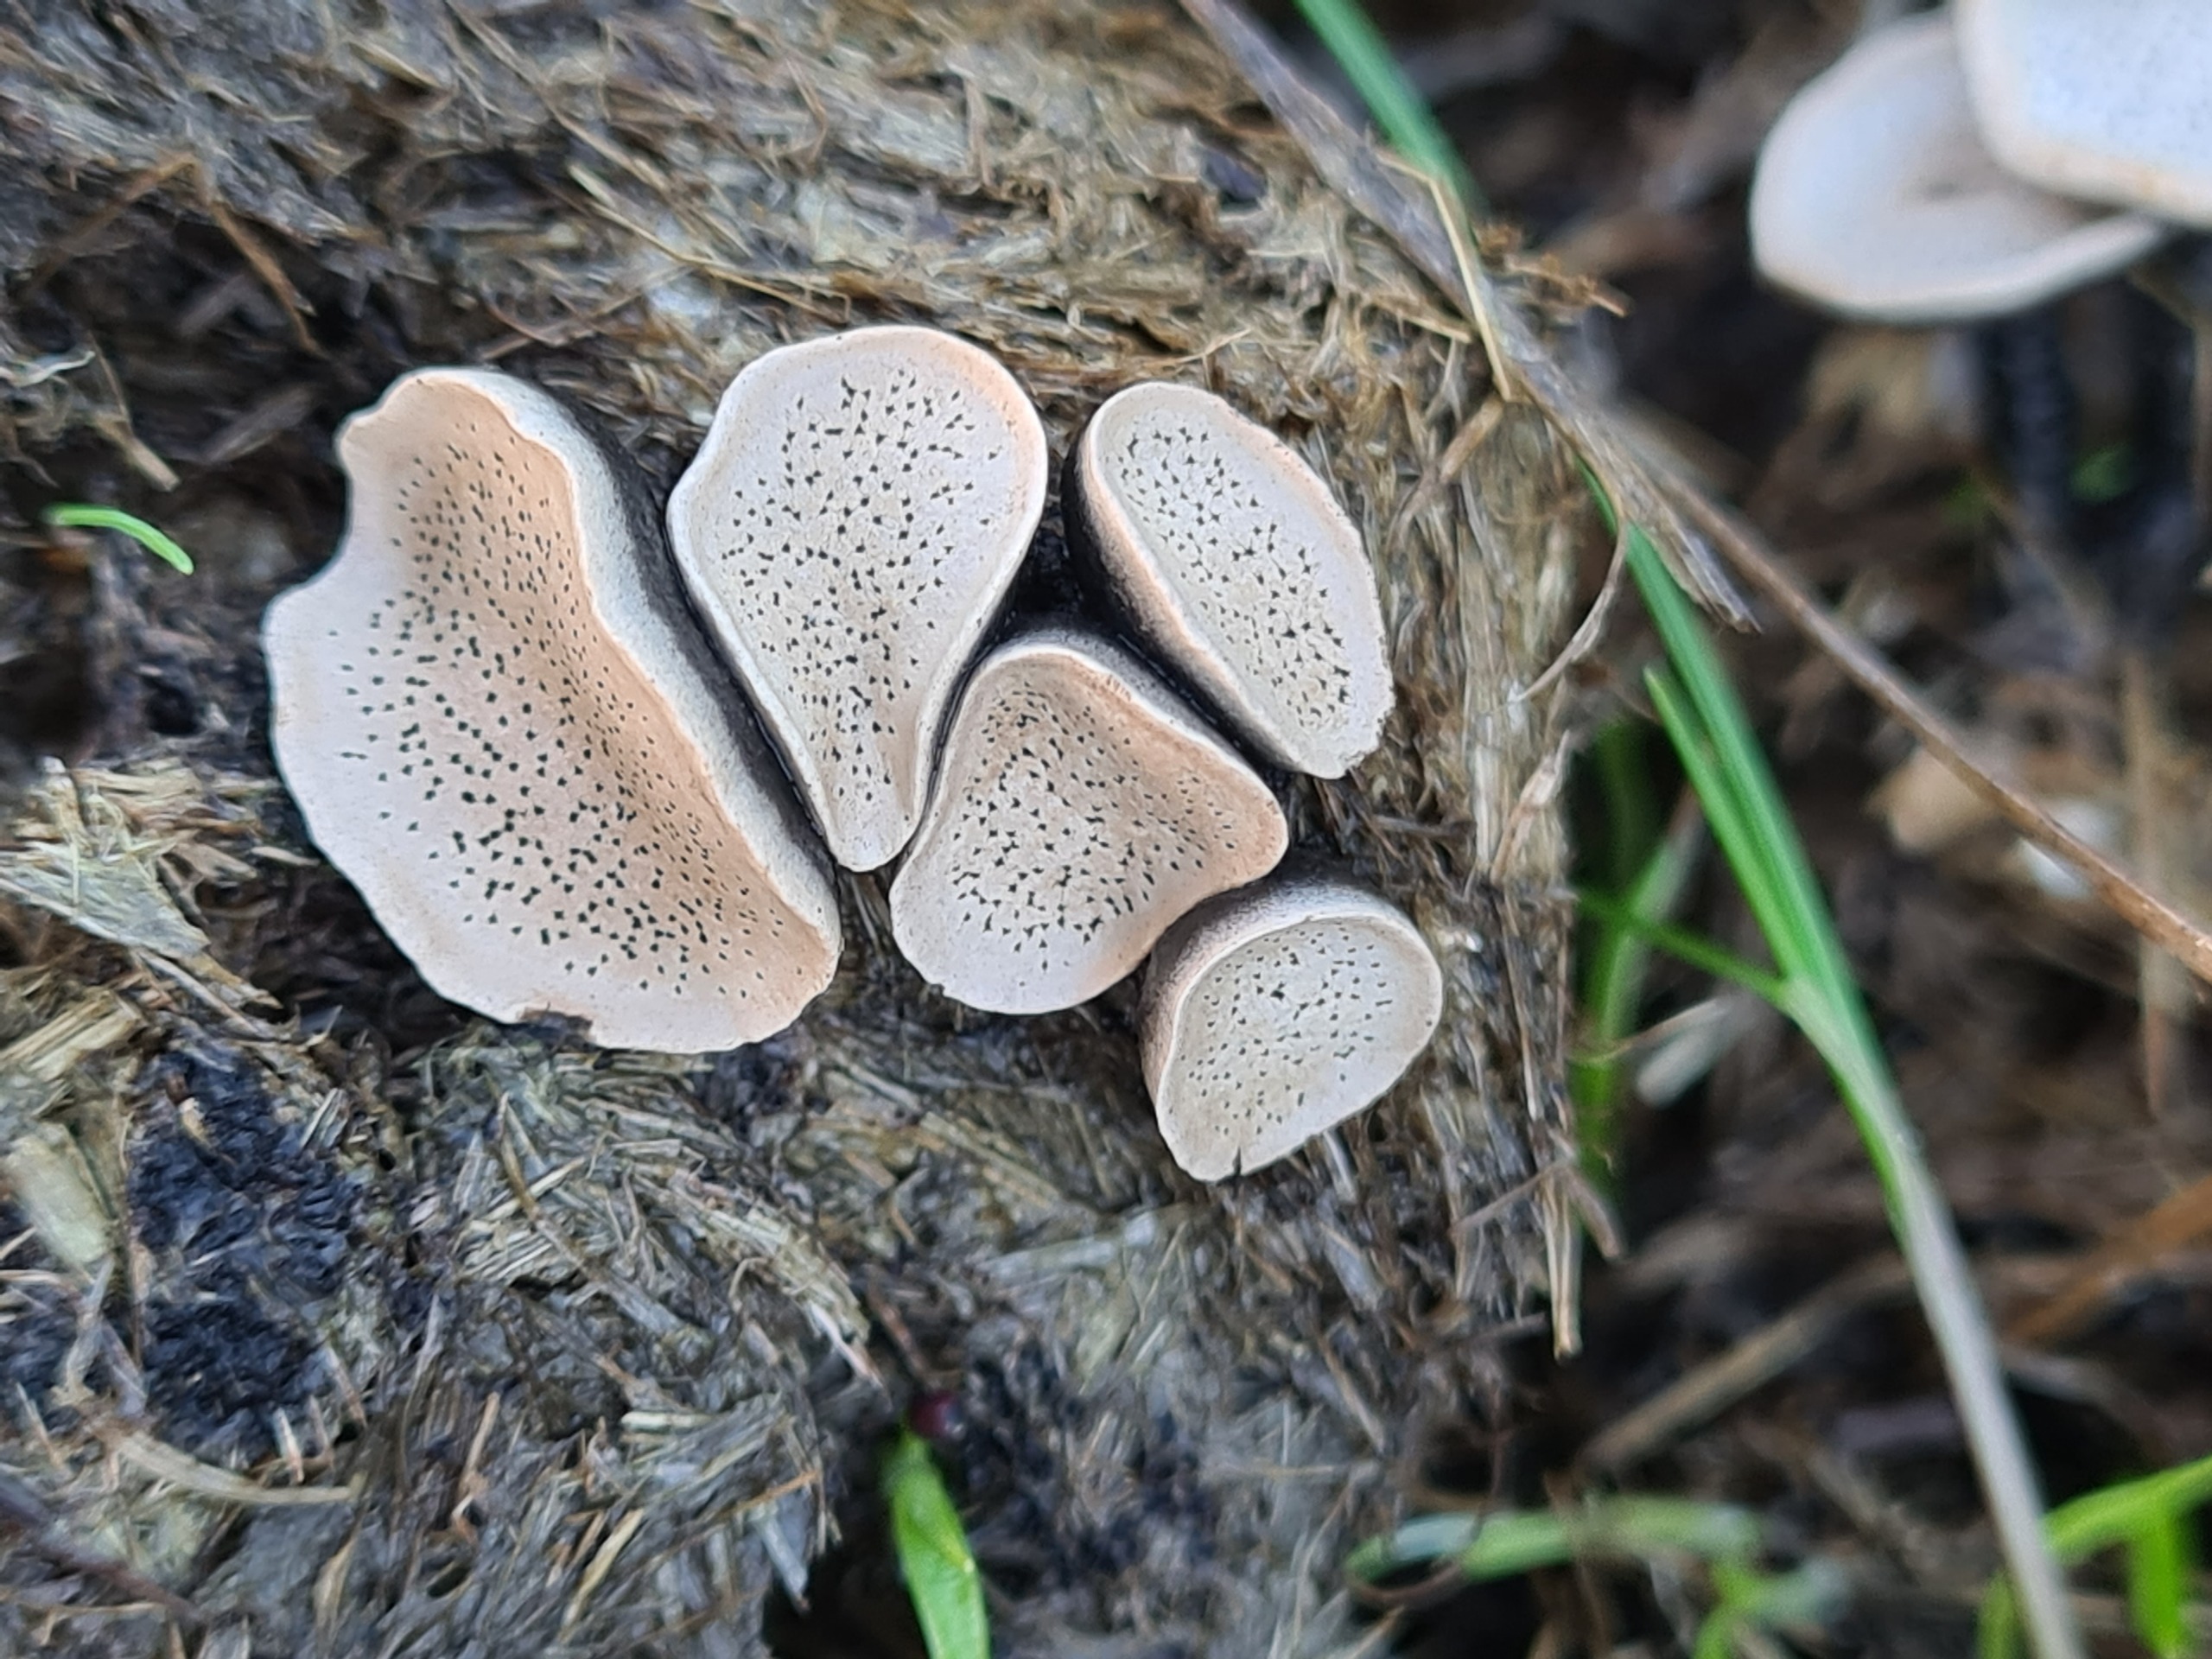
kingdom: Fungi
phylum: Ascomycota
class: Sordariomycetes
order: Xylariales
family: Xylariaceae
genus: Poronia
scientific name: Poronia punctata
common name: Stor priksvamp
